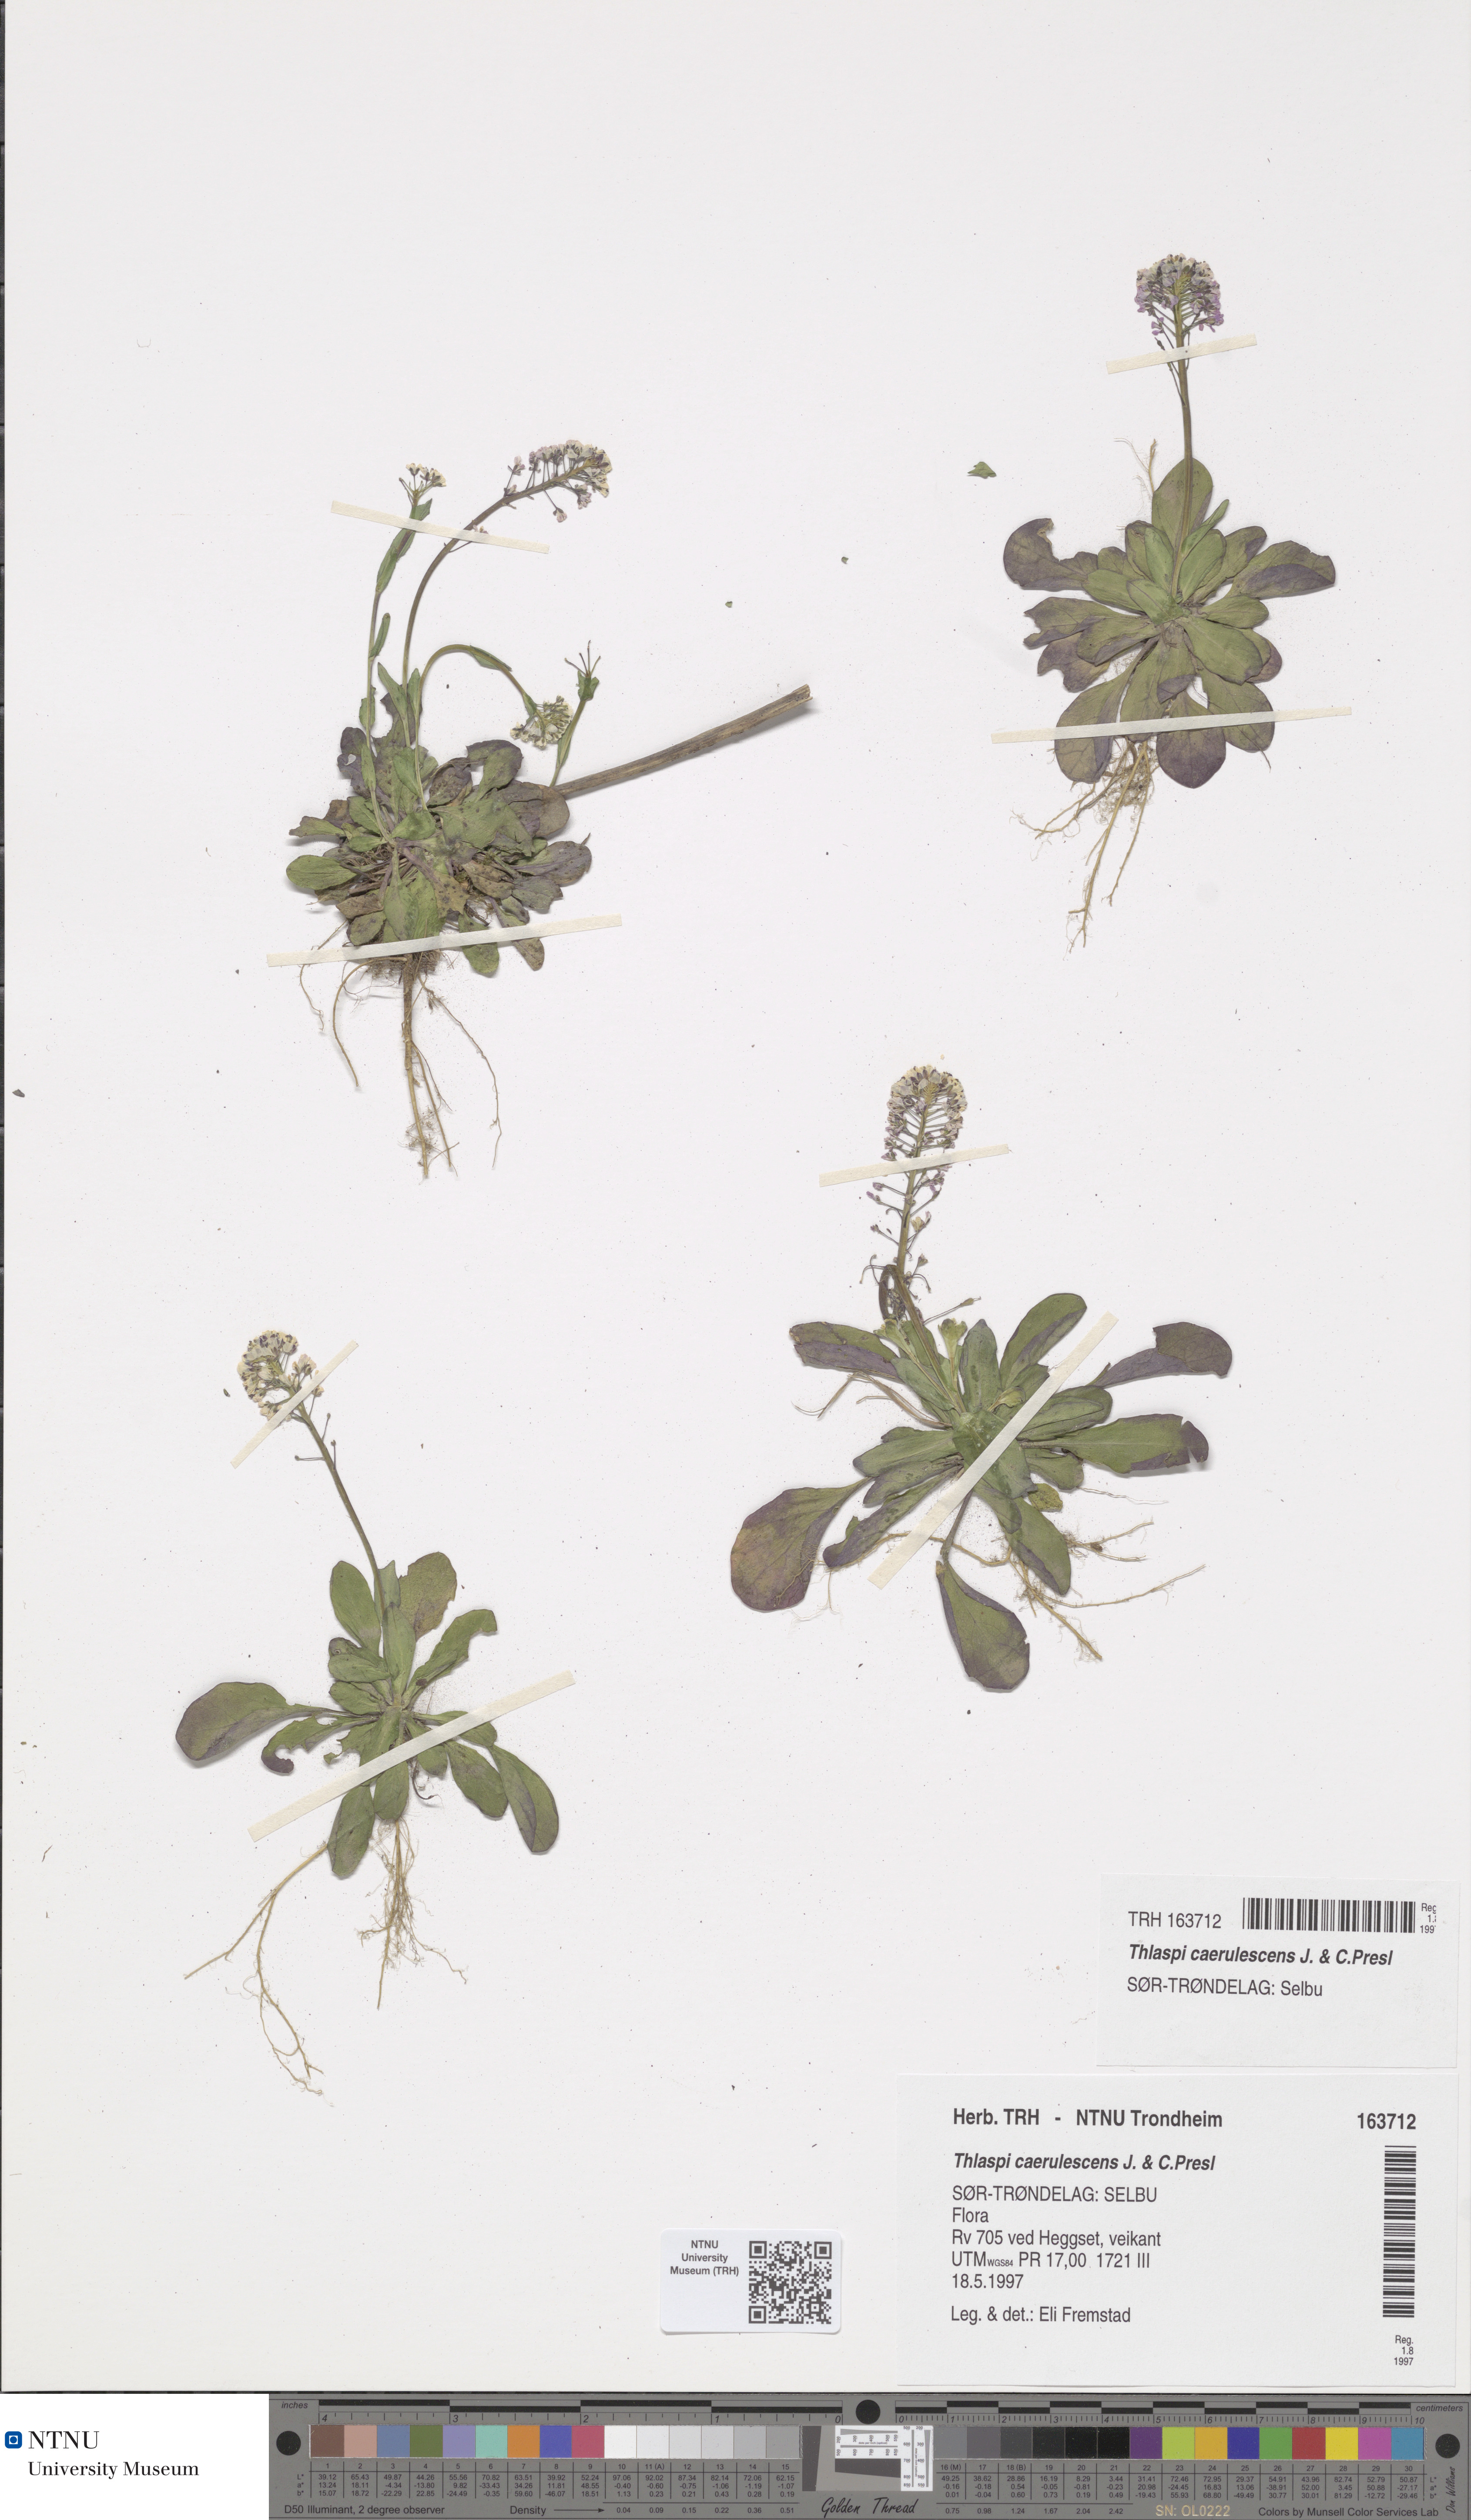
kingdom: Plantae
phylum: Tracheophyta
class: Magnoliopsida
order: Brassicales
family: Brassicaceae
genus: Noccaea
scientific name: Noccaea caerulescens
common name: Alpine pennycress
